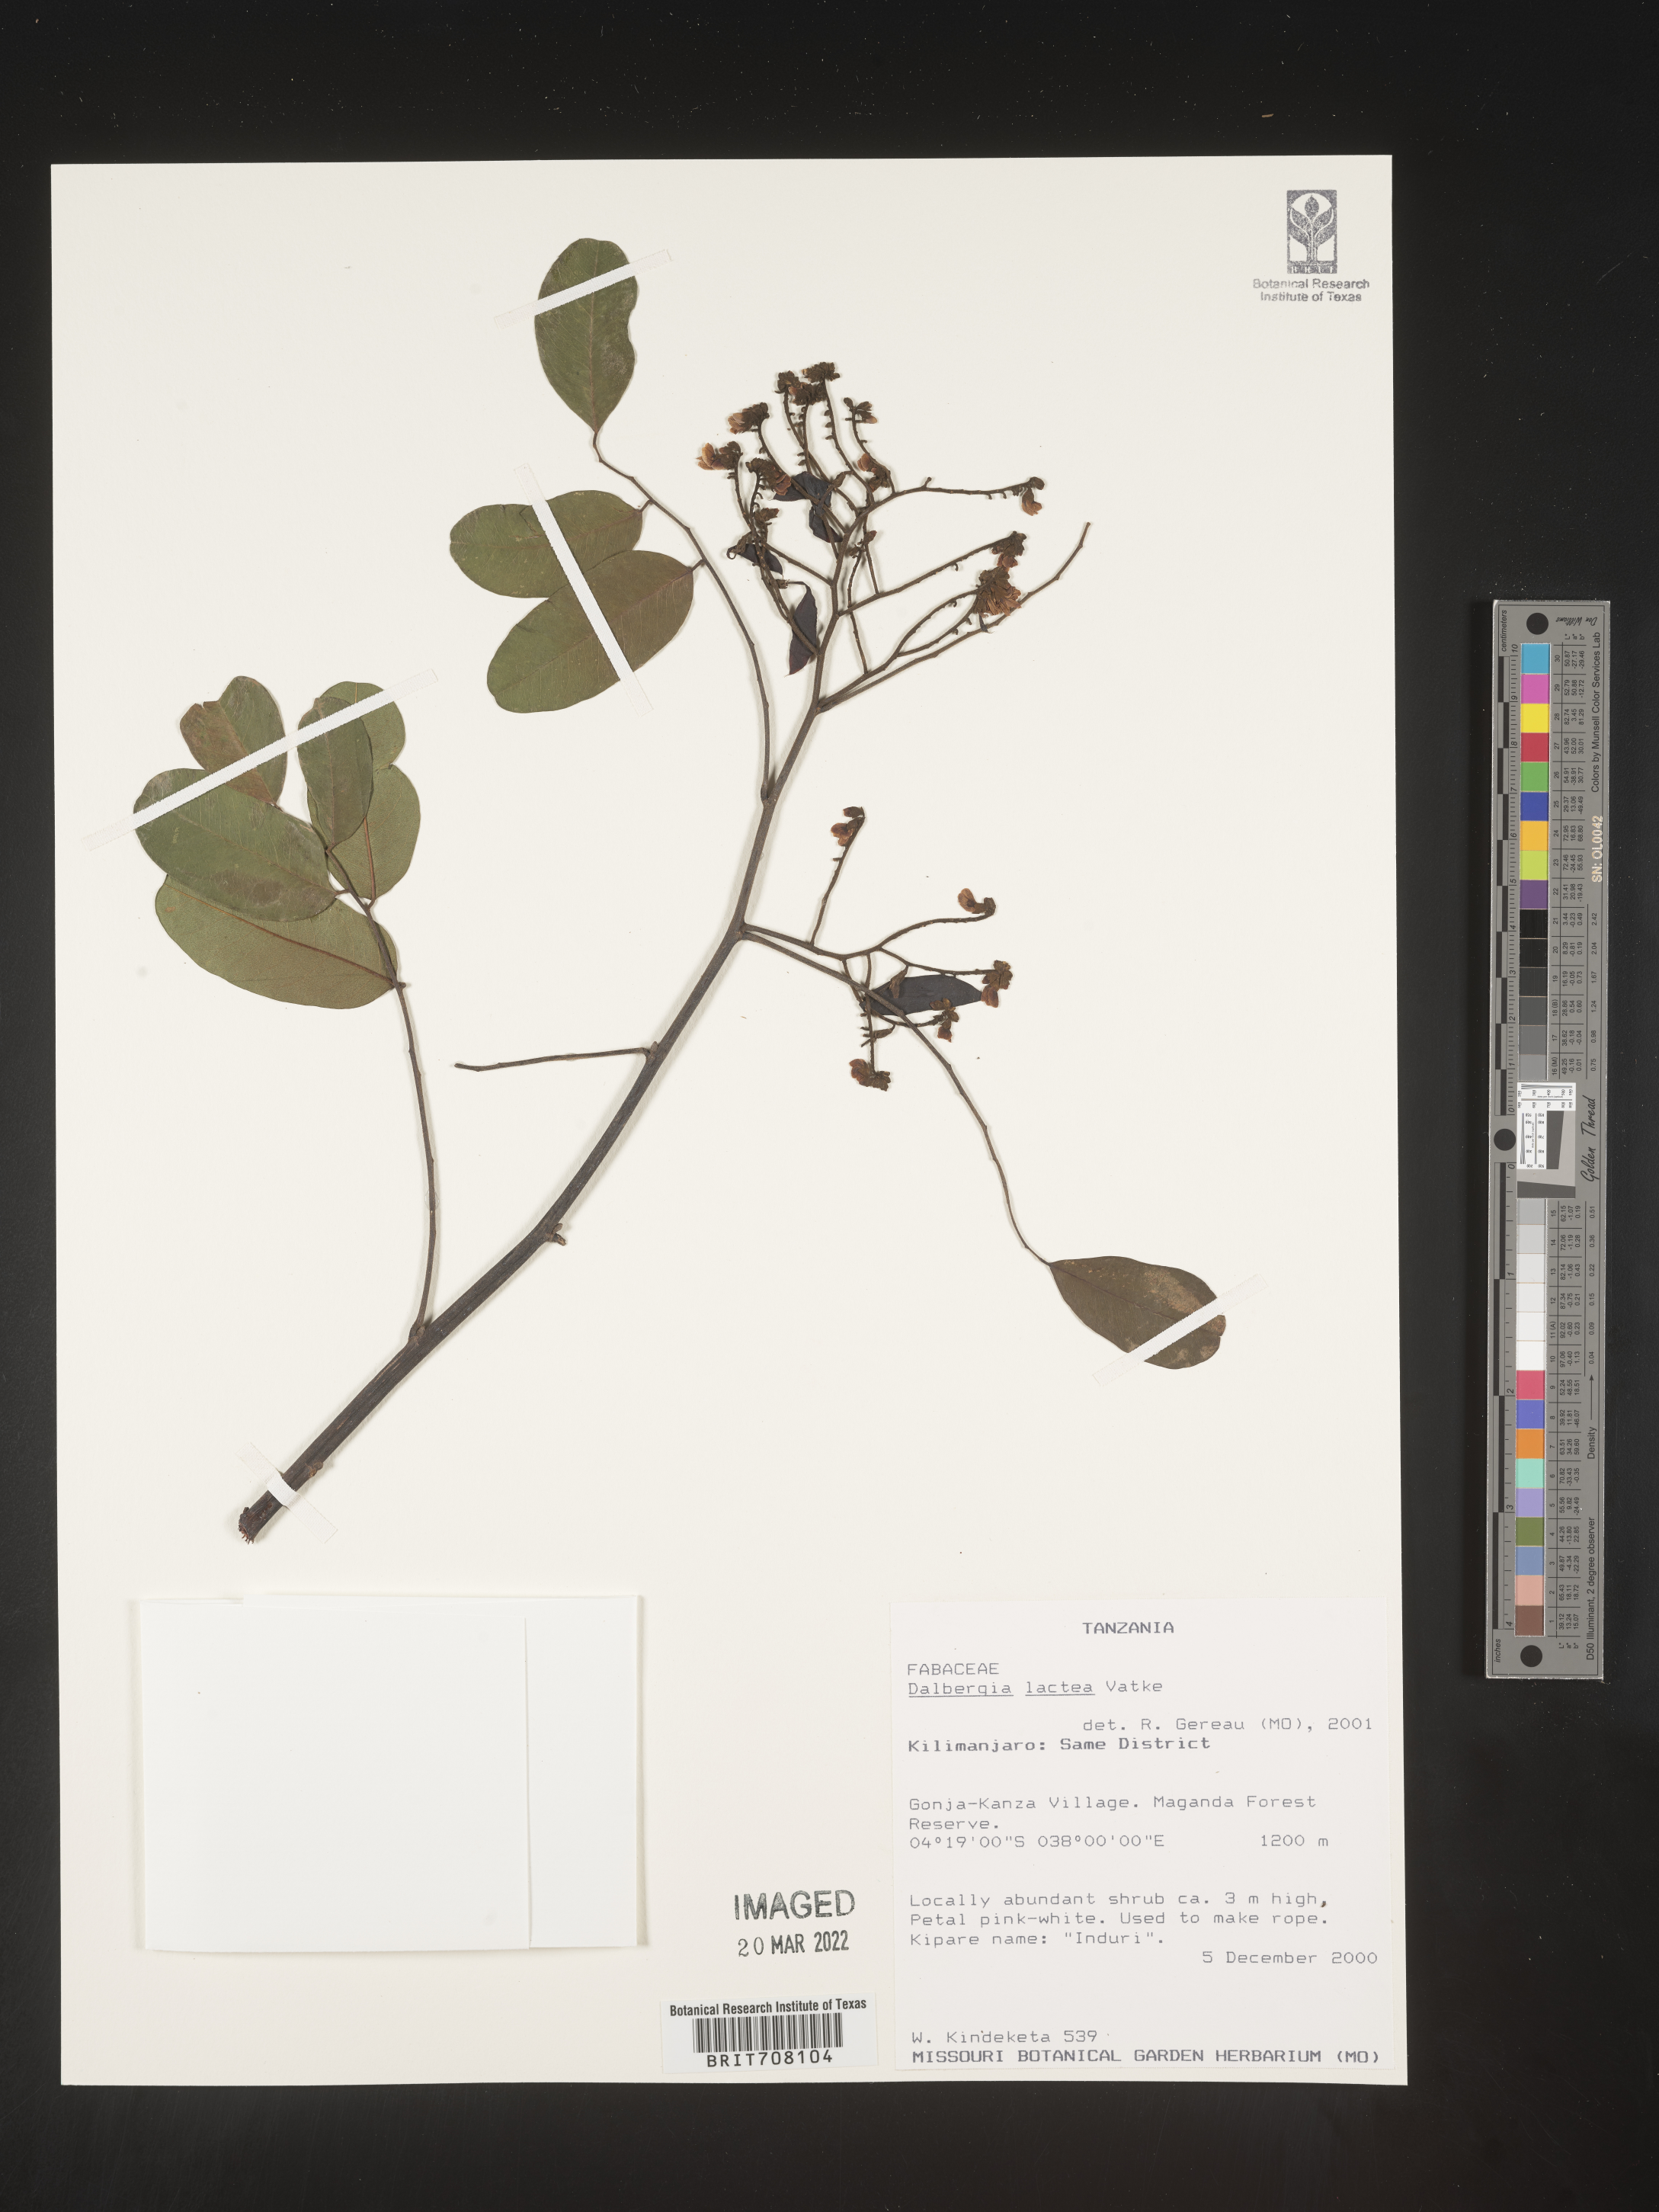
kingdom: Plantae
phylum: Tracheophyta
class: Magnoliopsida
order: Fabales
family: Fabaceae
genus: Dalbergia
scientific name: Dalbergia
